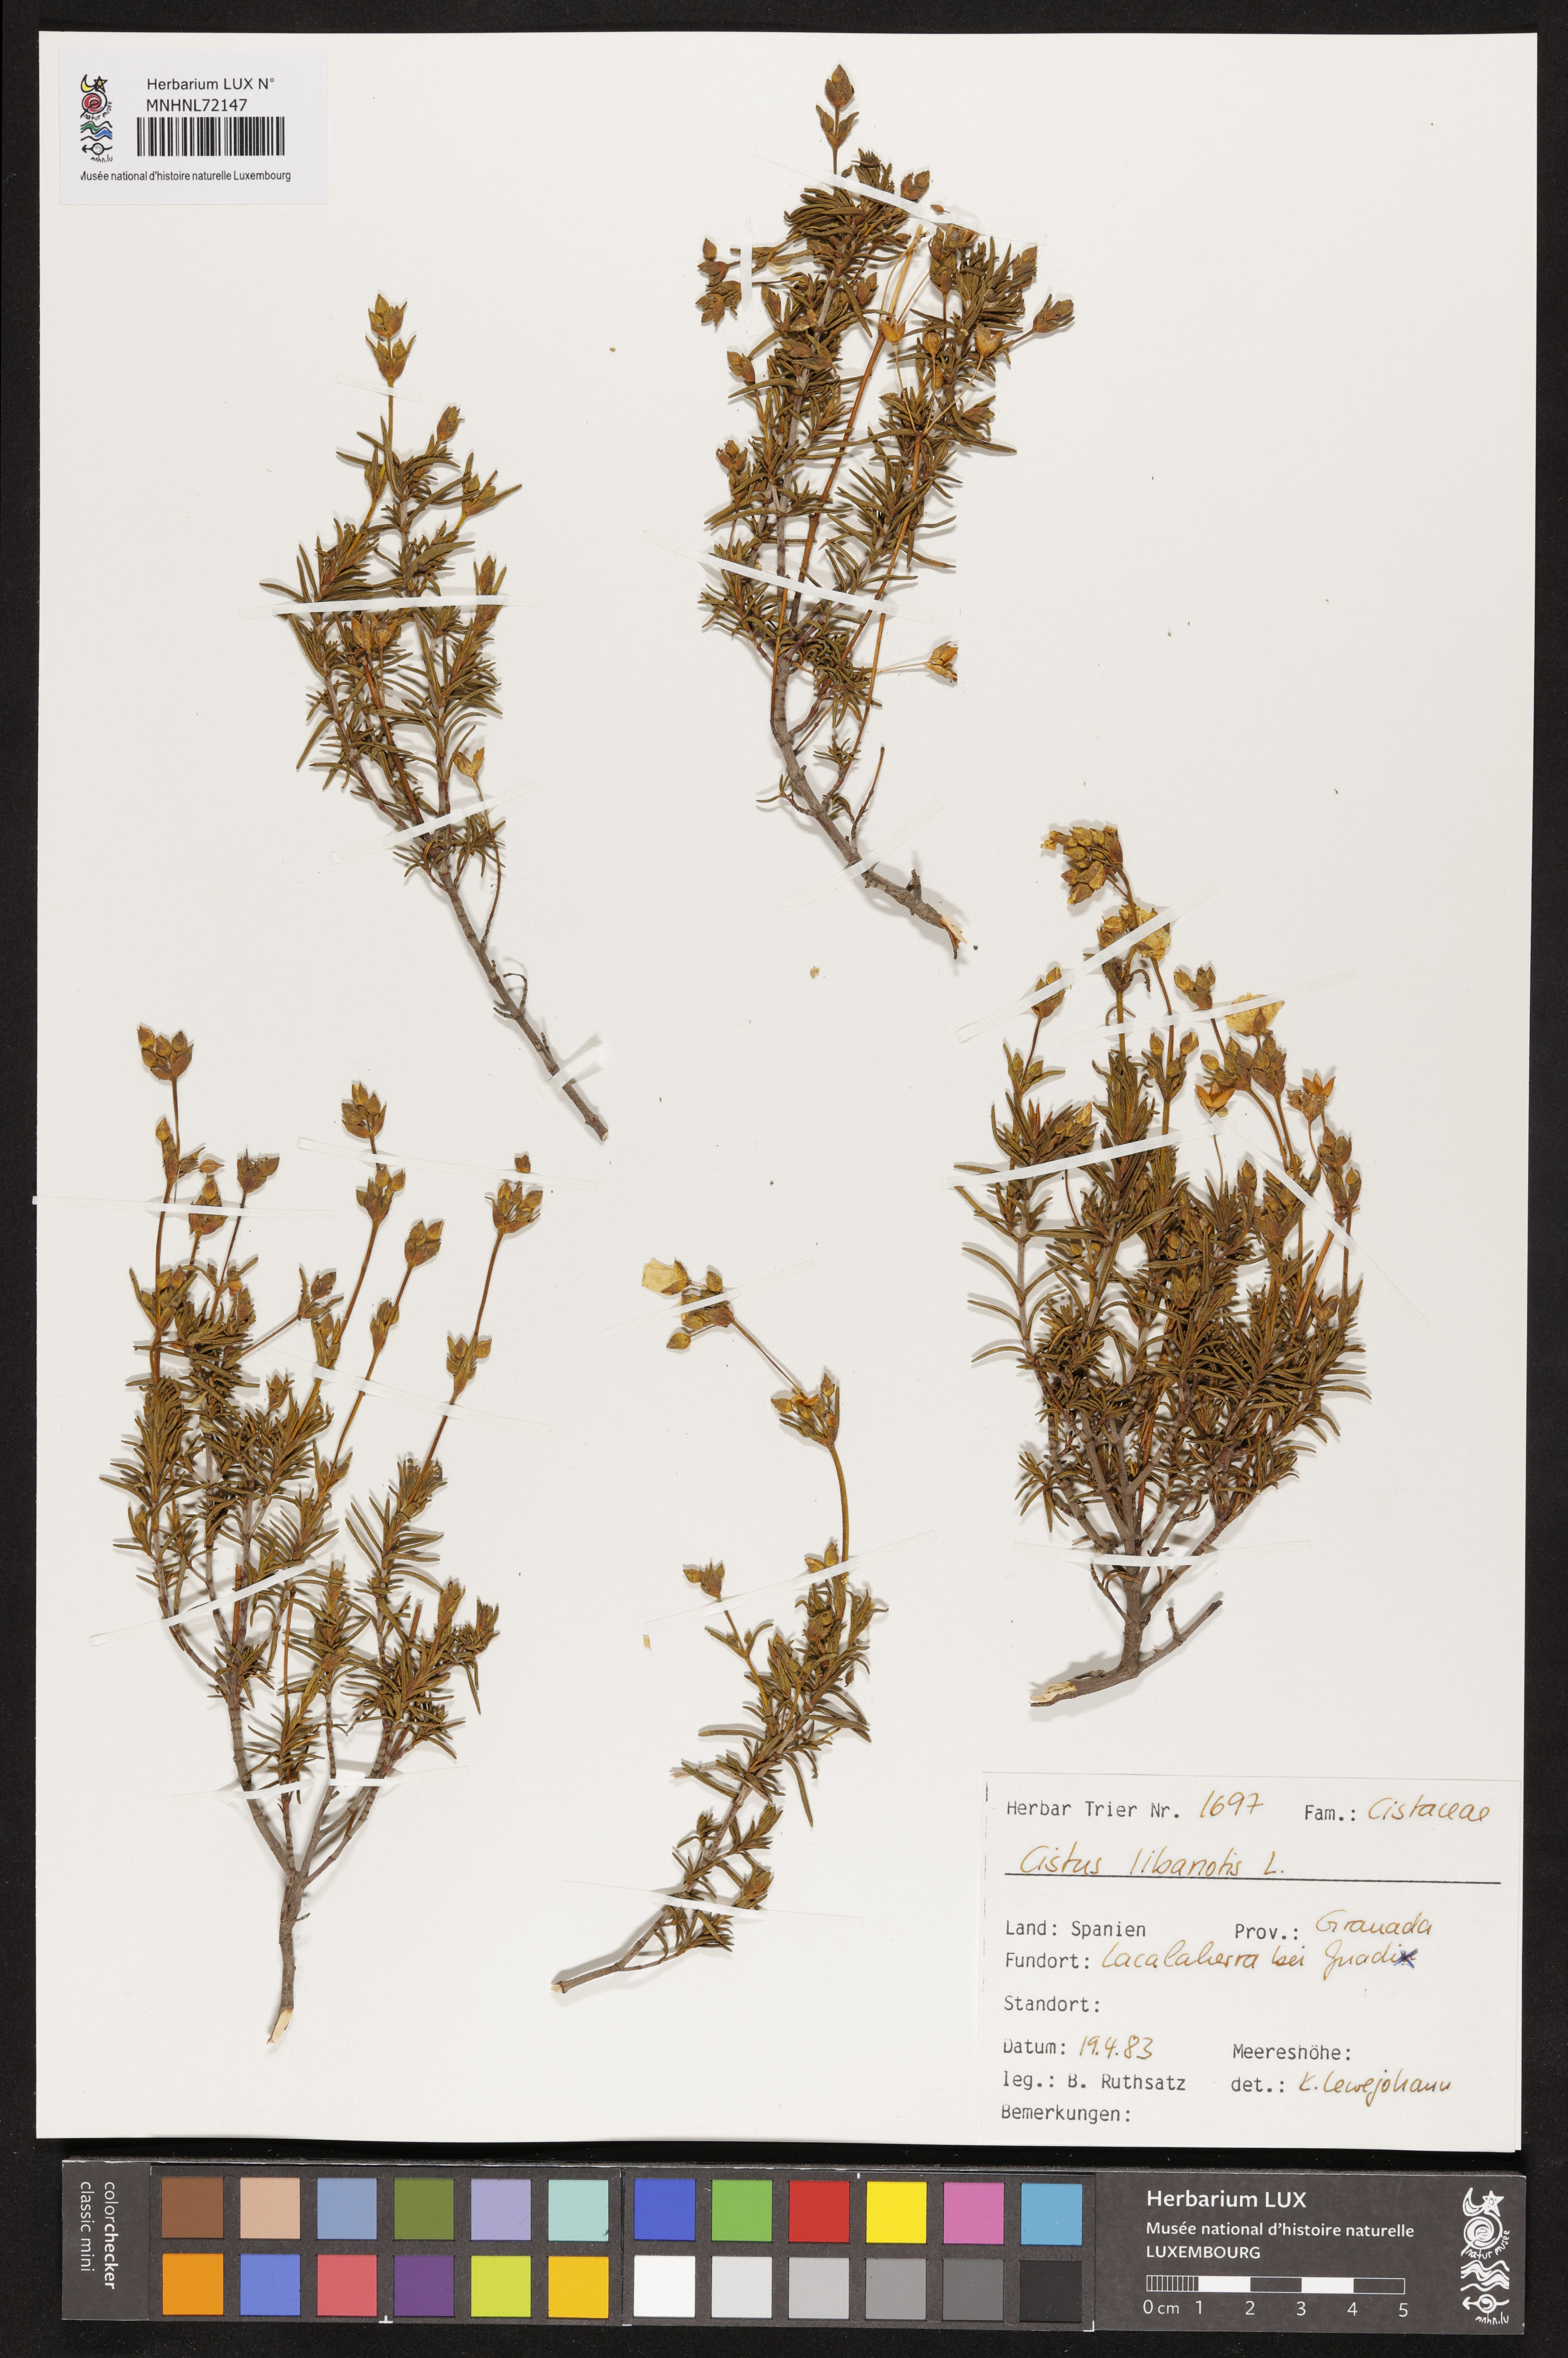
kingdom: Plantae
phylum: Tracheophyta
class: Magnoliopsida
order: Malvales
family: Cistaceae
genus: Cistus
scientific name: Cistus libanotis
